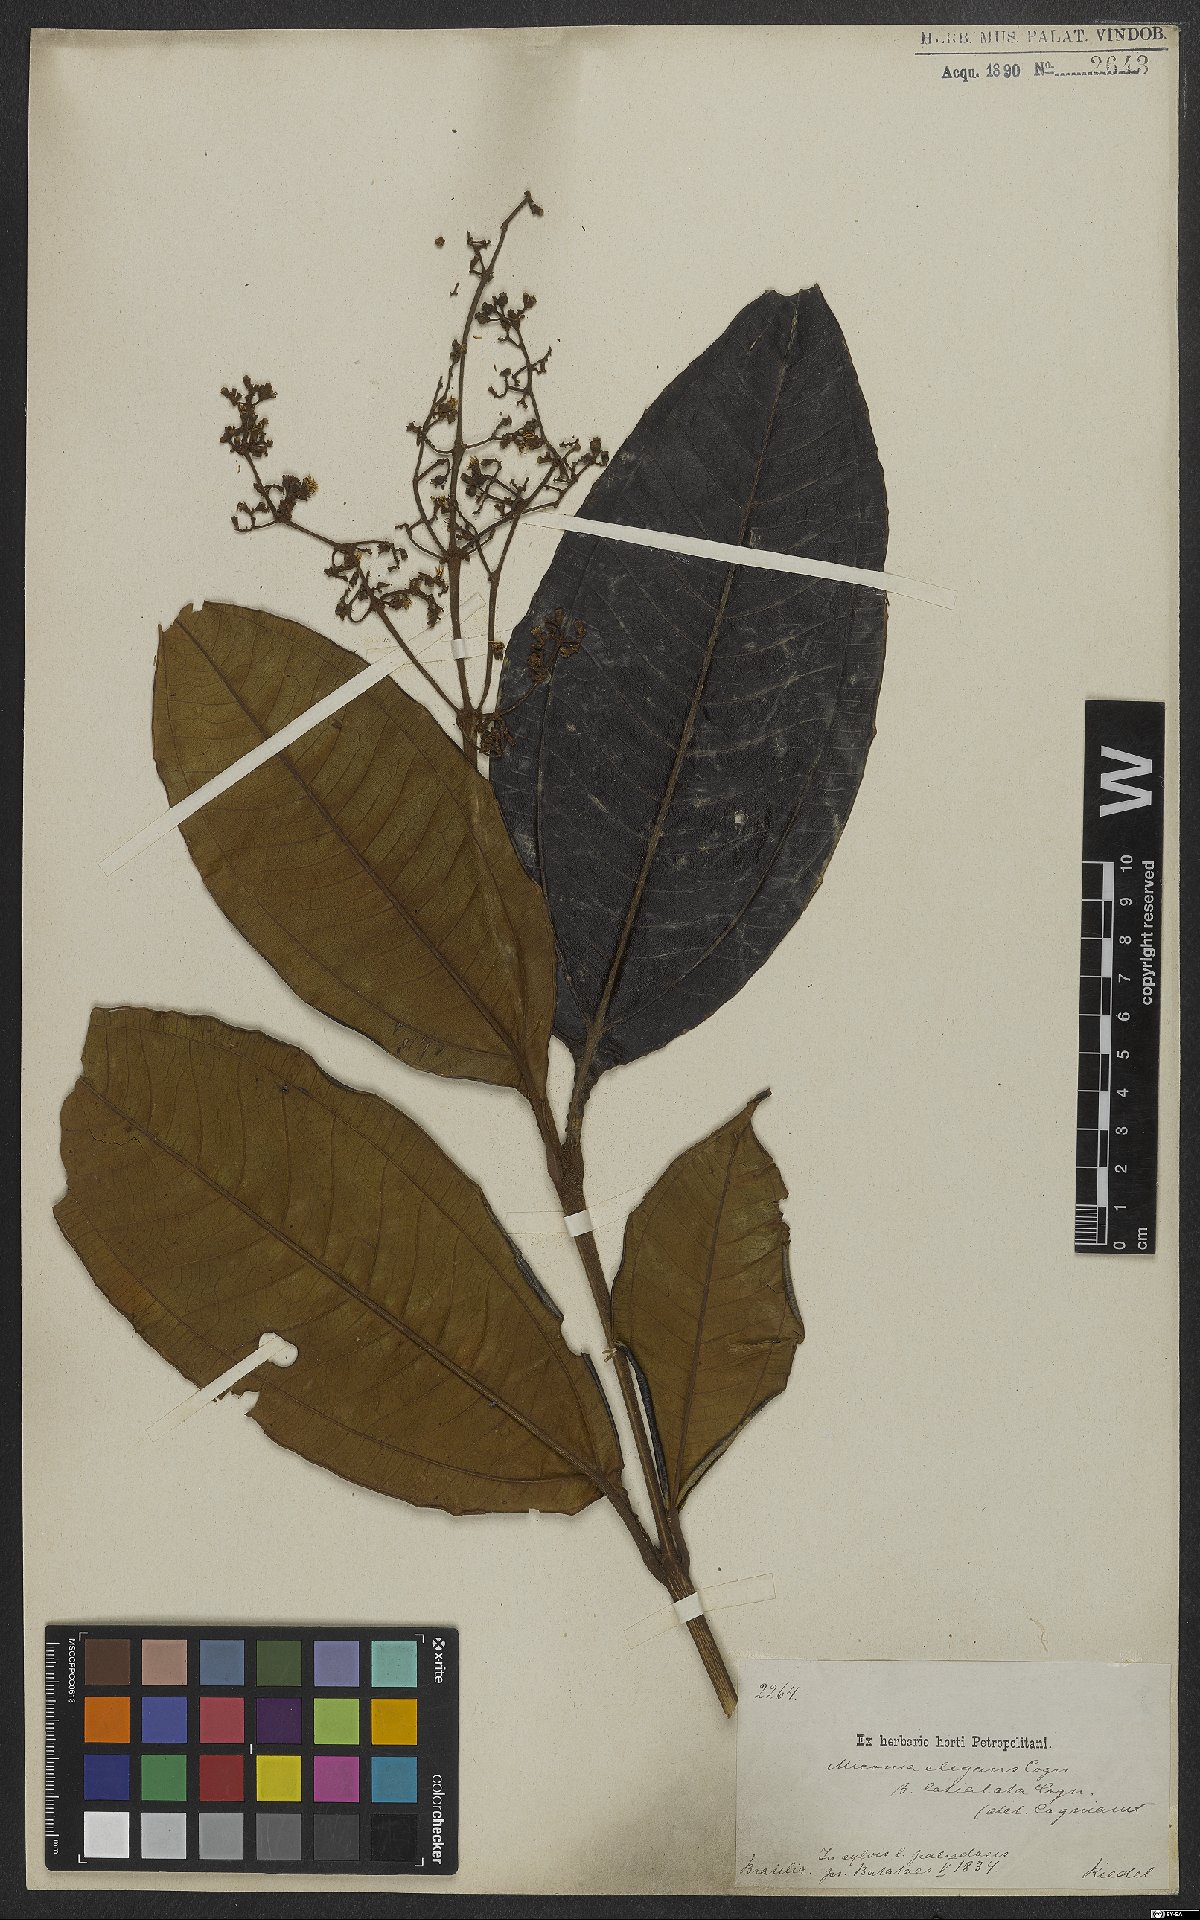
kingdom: Plantae
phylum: Tracheophyta
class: Magnoliopsida
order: Myrtales
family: Melastomataceae
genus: Miconia
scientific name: Miconia elegans
